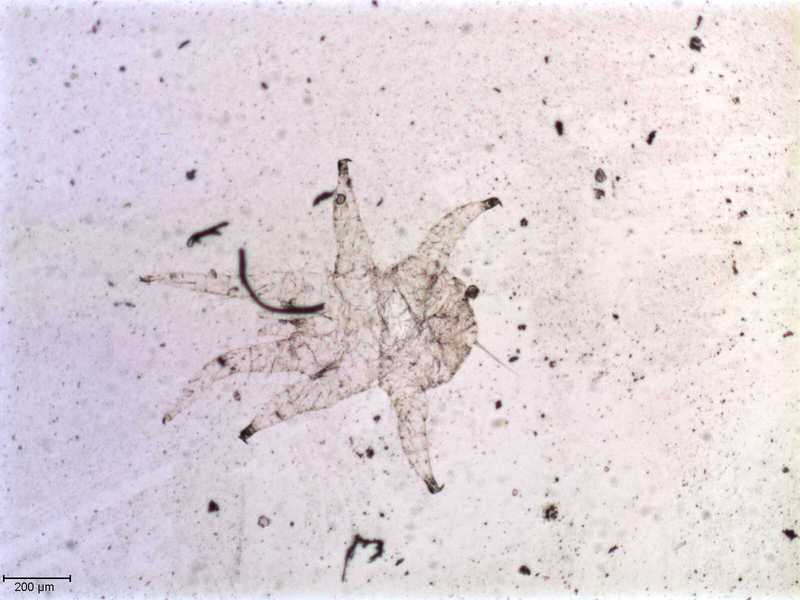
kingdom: Animalia
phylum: Arthropoda
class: Arachnida
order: Mesostigmata
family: Halarachnidae
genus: Orthohalarachne
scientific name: Orthohalarachne letalis
